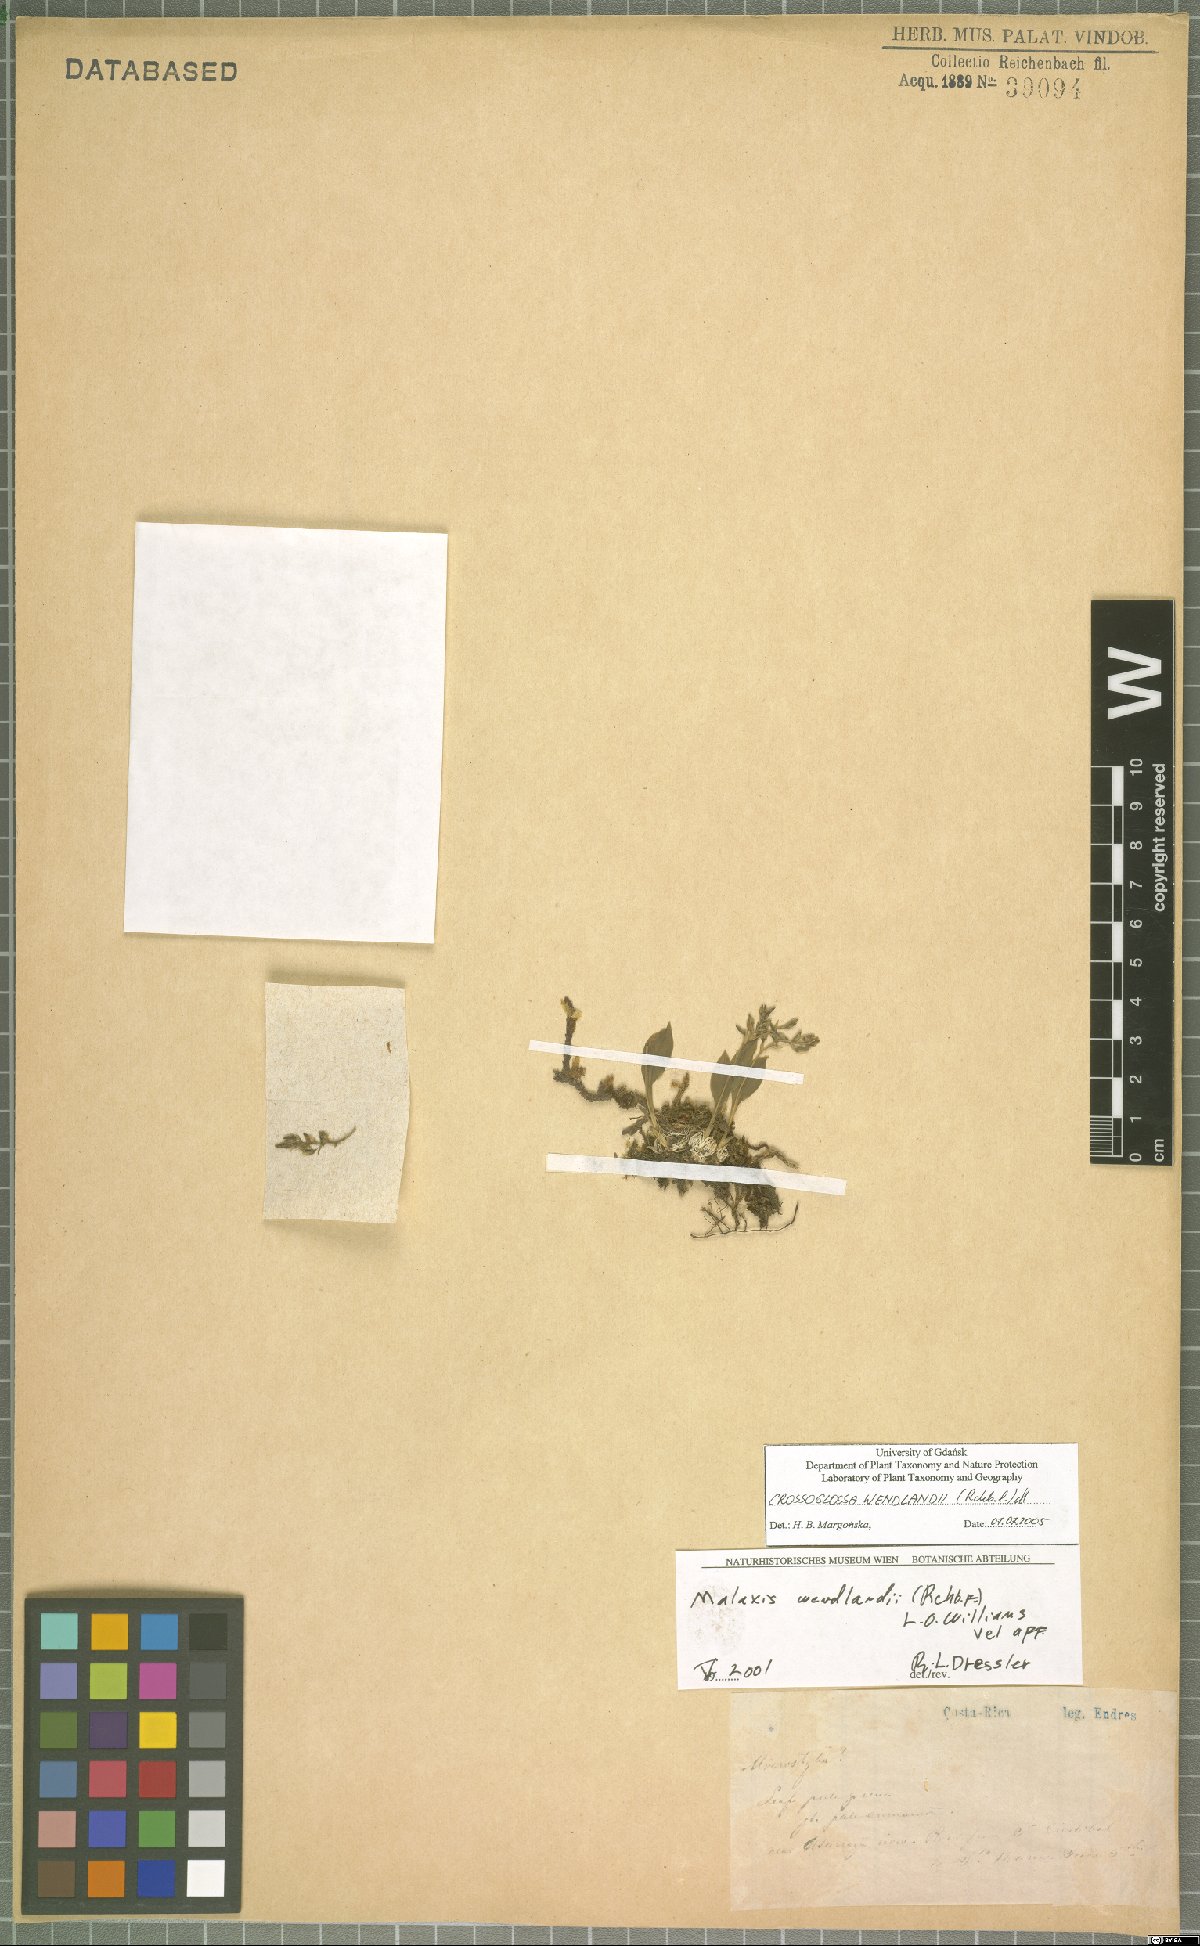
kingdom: Plantae
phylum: Tracheophyta
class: Liliopsida
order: Asparagales
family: Orchidaceae
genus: Crossoliparis
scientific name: Crossoliparis wendlandii
